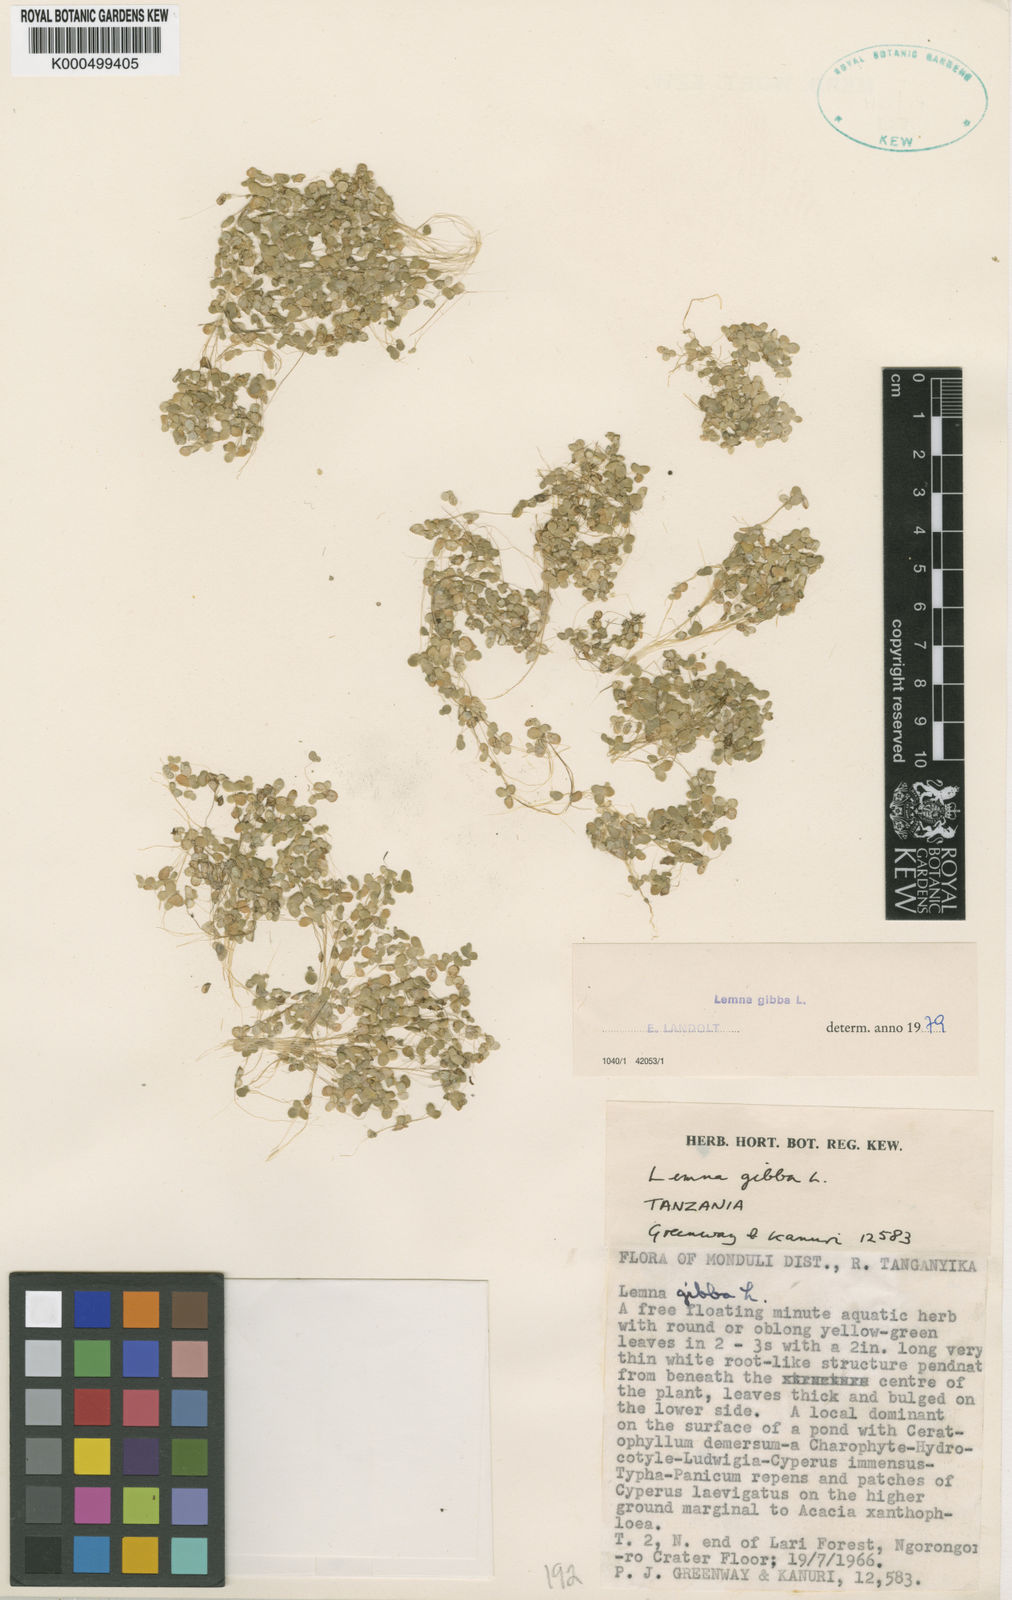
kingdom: Plantae
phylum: Tracheophyta
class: Liliopsida
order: Alismatales
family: Araceae
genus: Lemna
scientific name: Lemna gibba
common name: Fat duckweed
